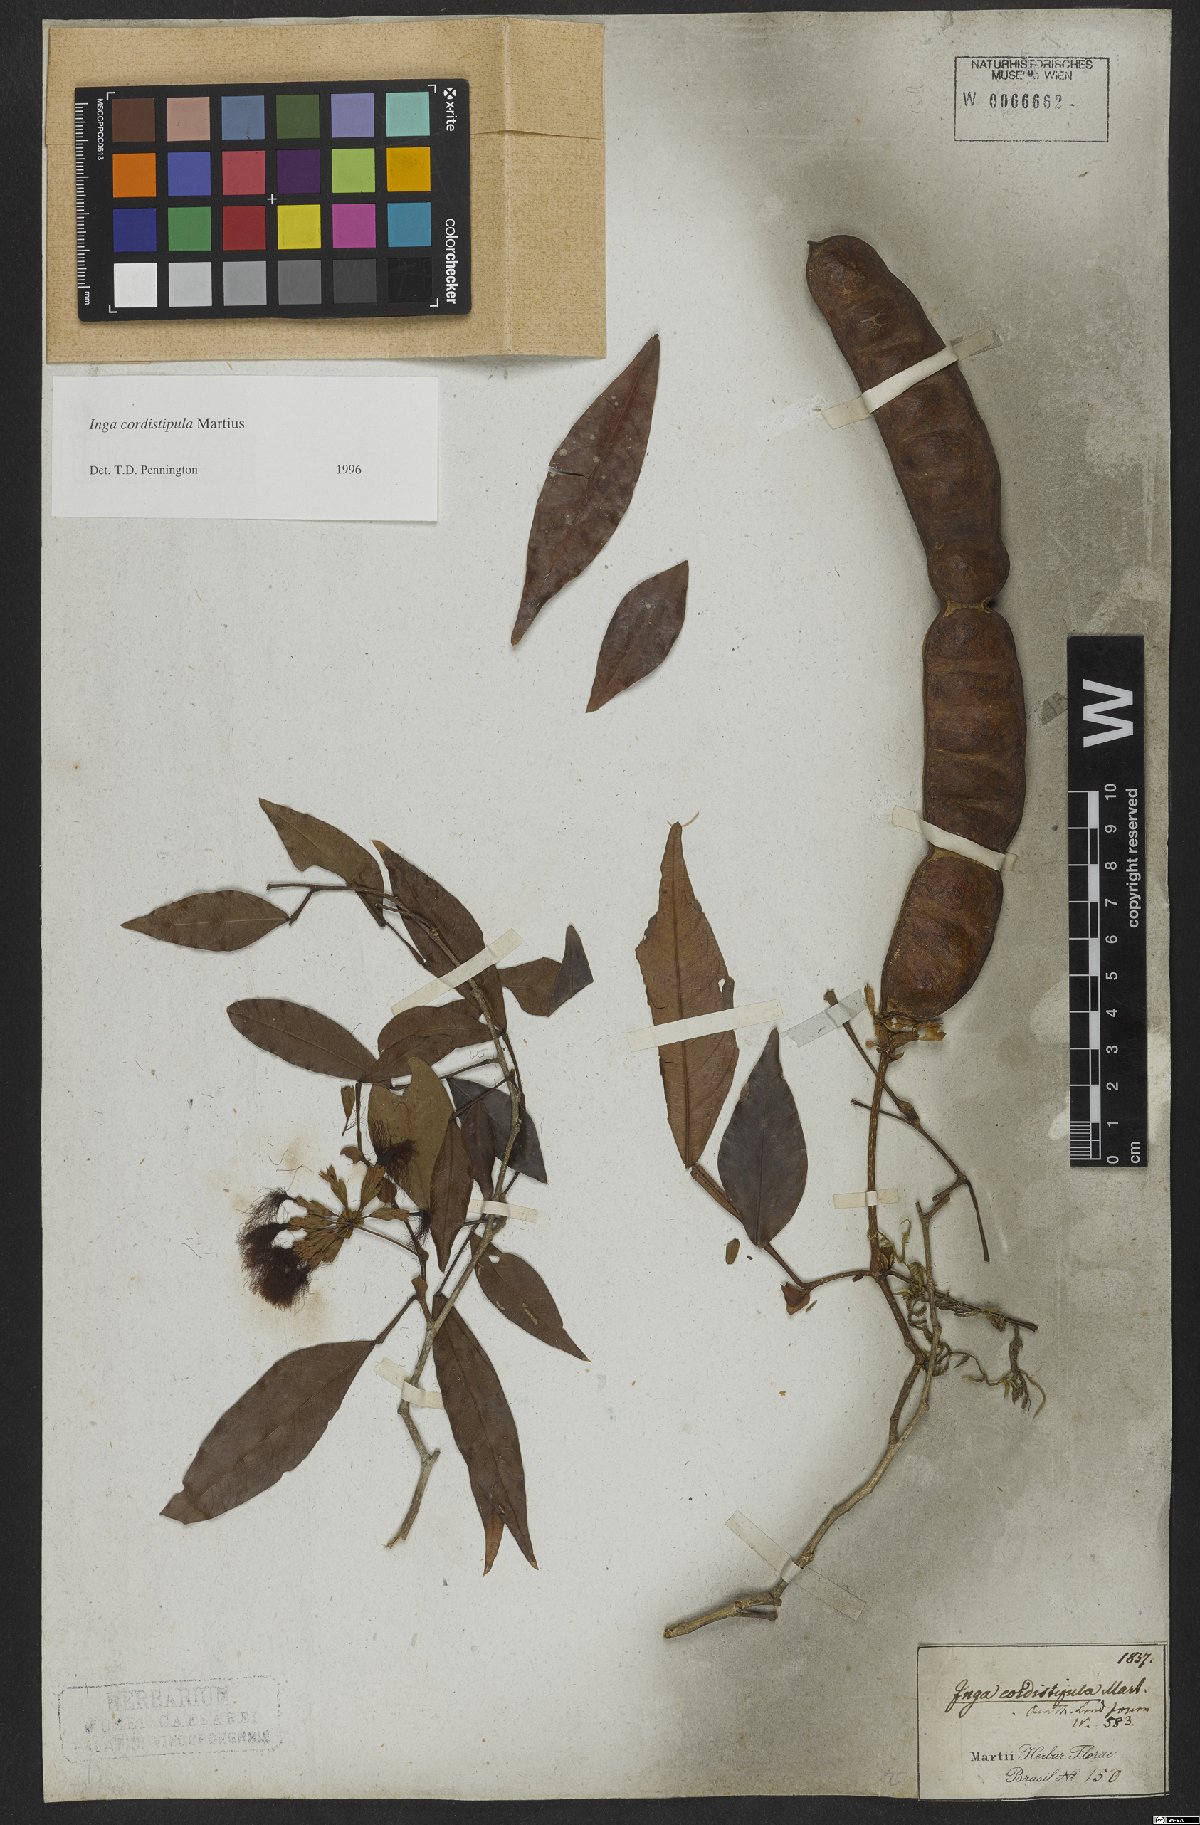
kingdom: Plantae
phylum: Tracheophyta
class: Magnoliopsida
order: Fabales
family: Fabaceae
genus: Inga
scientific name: Inga cordistipula
